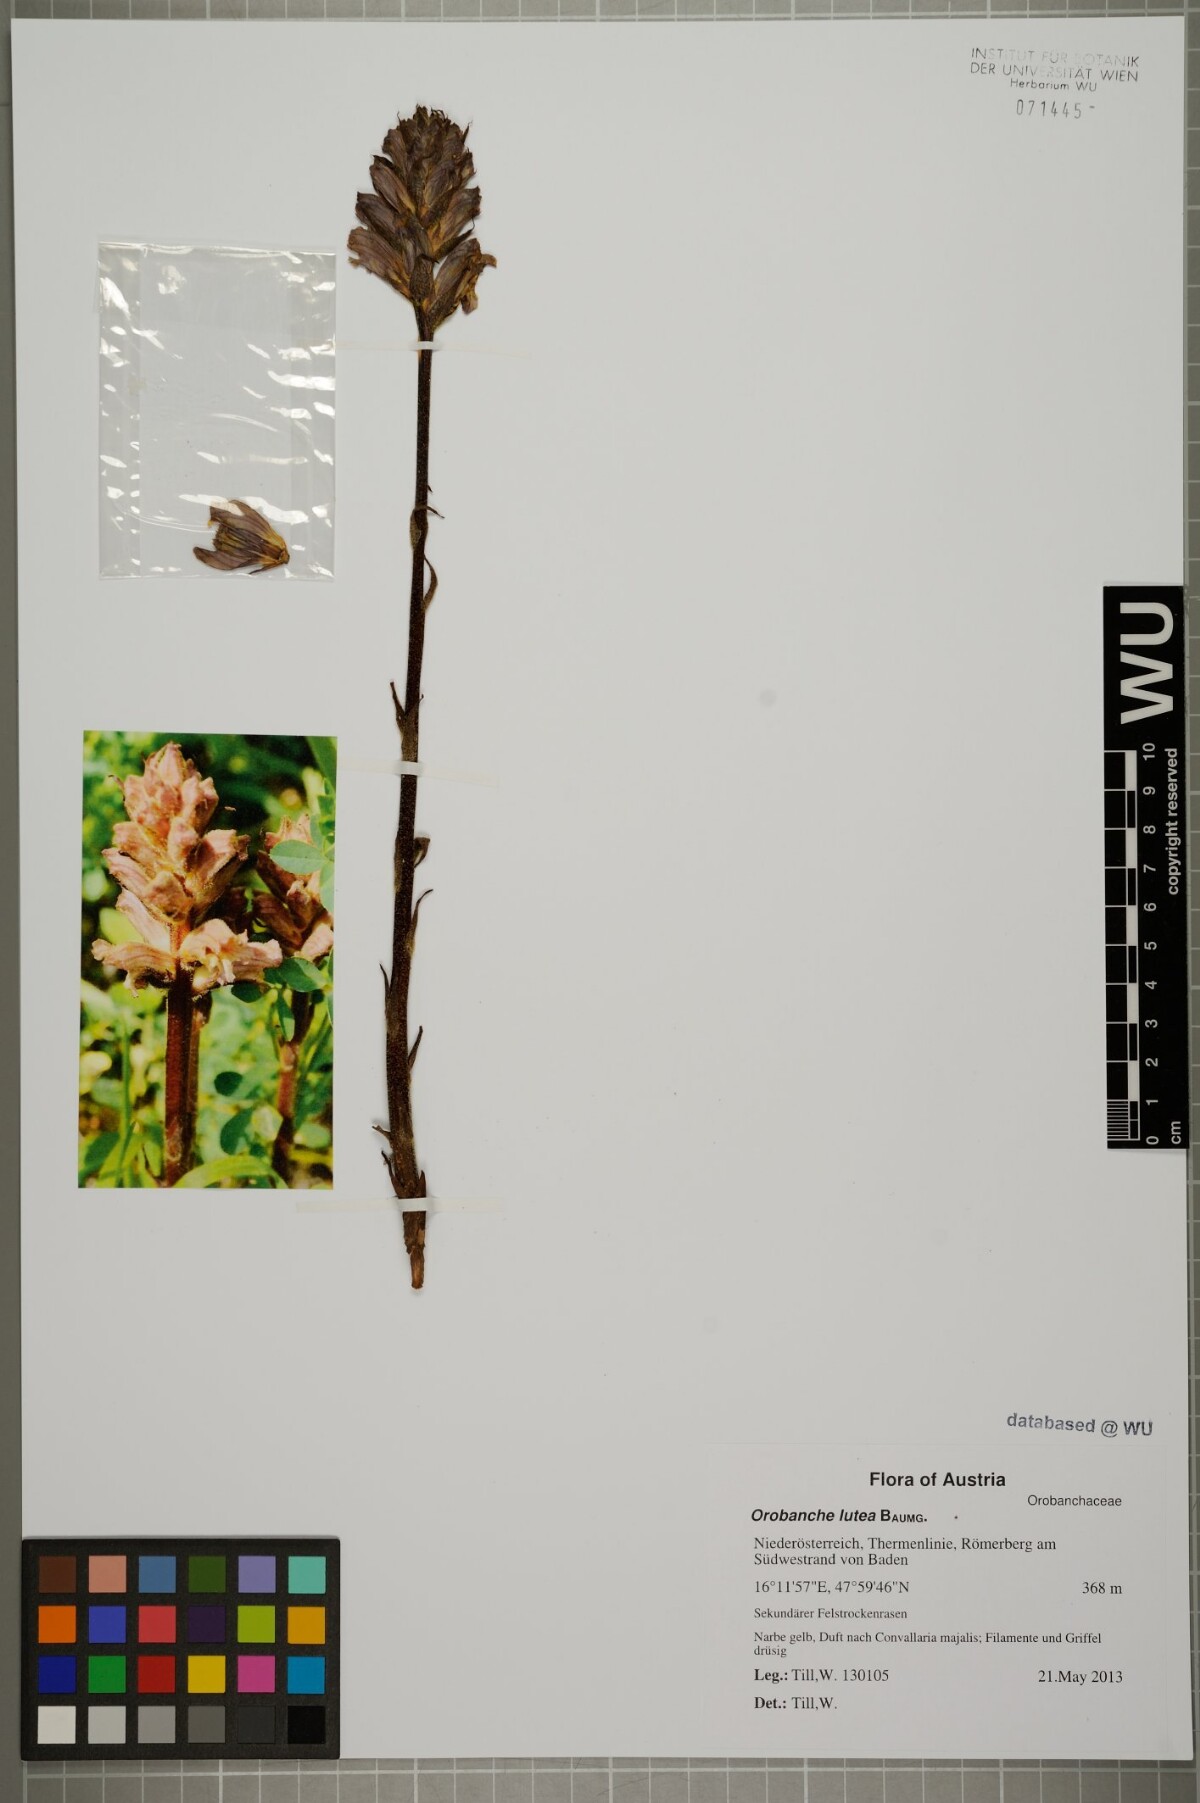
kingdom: Plantae
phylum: Tracheophyta
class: Magnoliopsida
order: Lamiales
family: Orobanchaceae
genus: Orobanche
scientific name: Orobanche lutea
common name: Yellow broomrape
